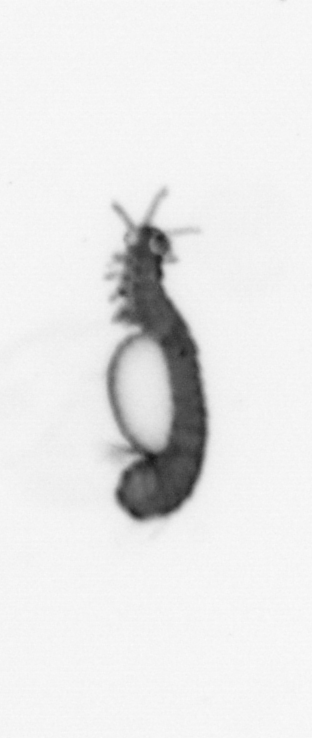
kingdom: Animalia
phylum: Annelida
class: Polychaeta
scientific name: Polychaeta
